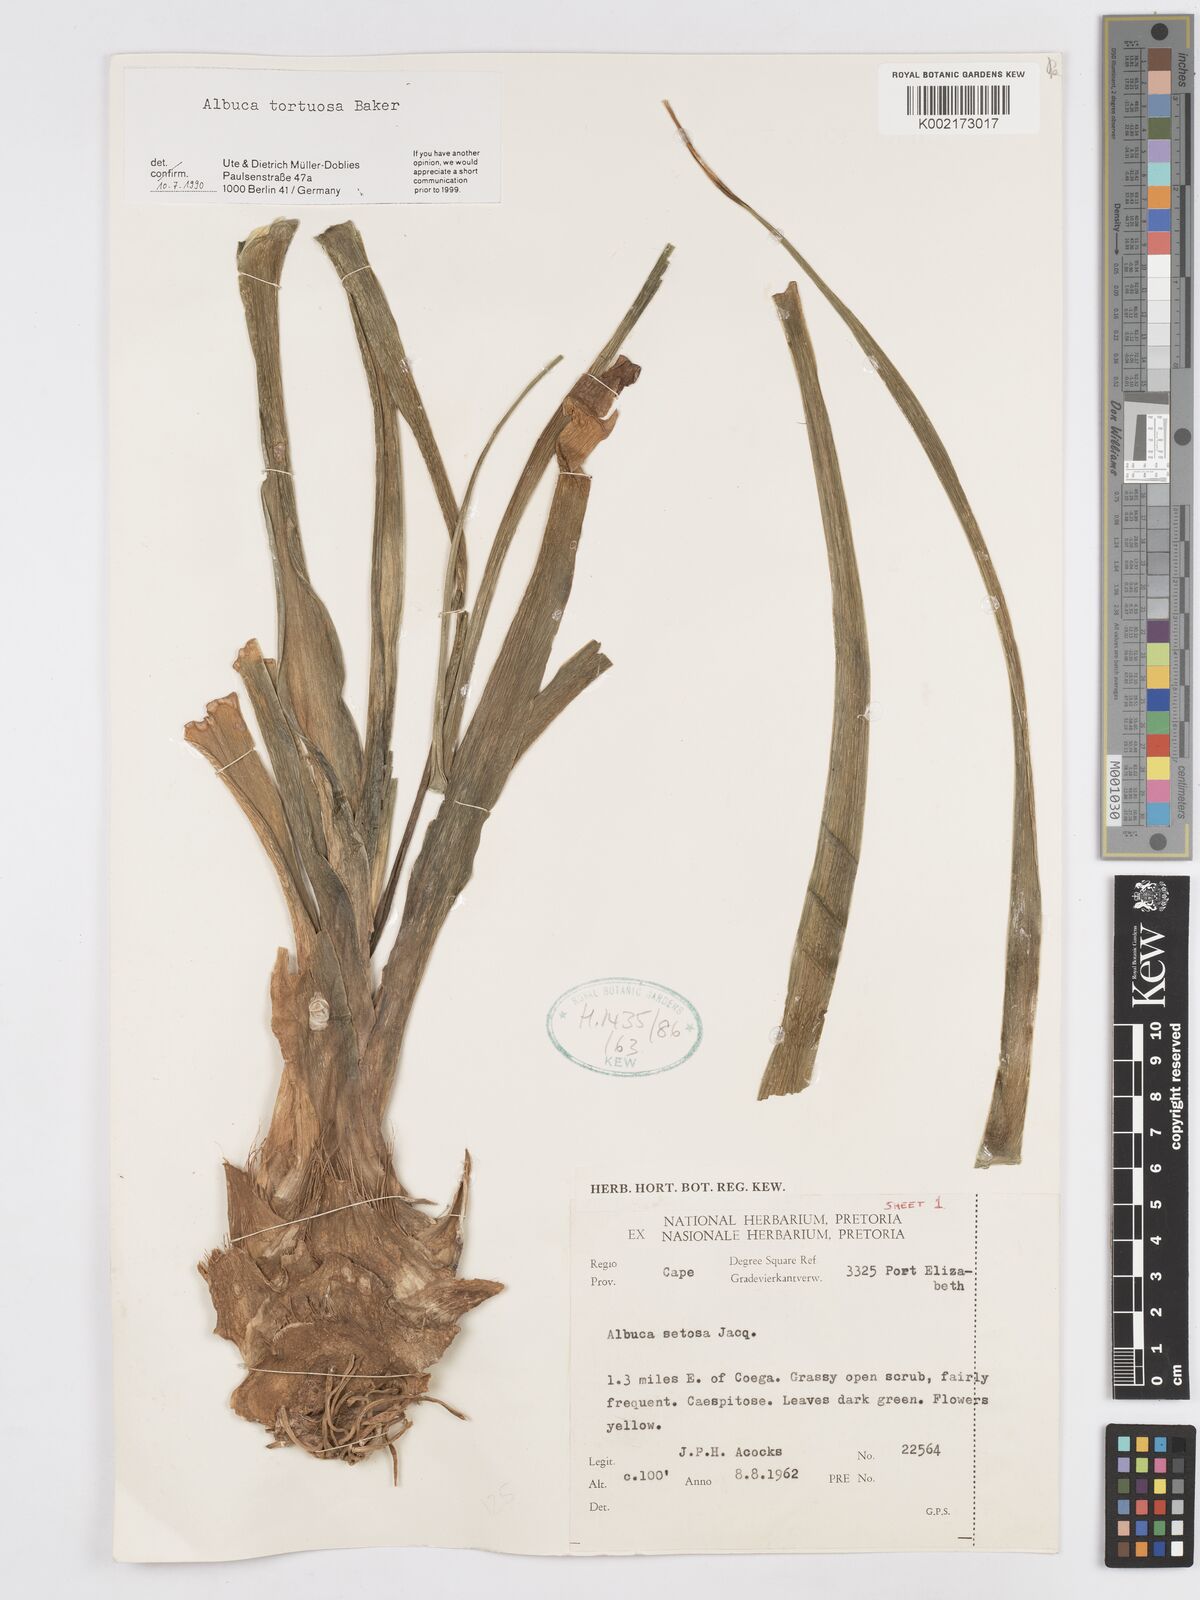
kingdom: Plantae
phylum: Tracheophyta
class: Liliopsida
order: Asparagales
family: Asparagaceae
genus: Albuca
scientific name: Albuca tortuosa
